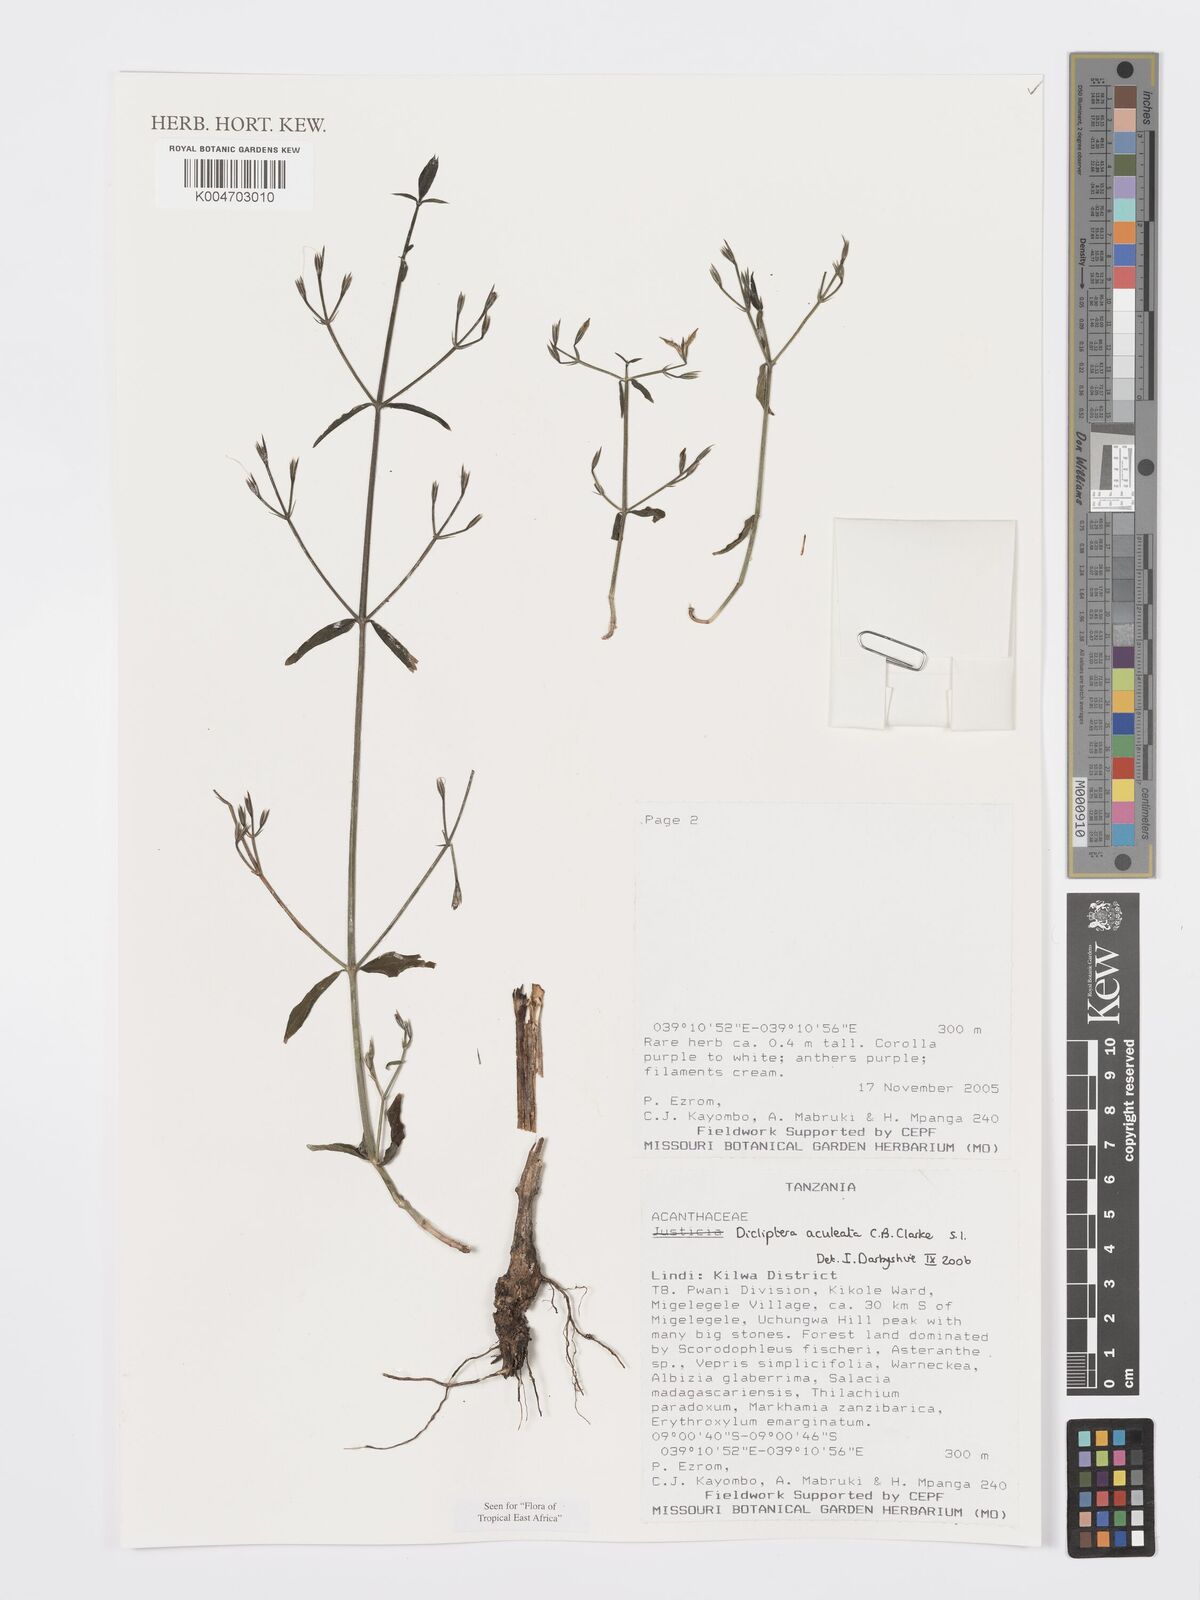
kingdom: Plantae
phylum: Tracheophyta
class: Magnoliopsida
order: Lamiales
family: Acanthaceae
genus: Dicliptera
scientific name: Dicliptera hensii
